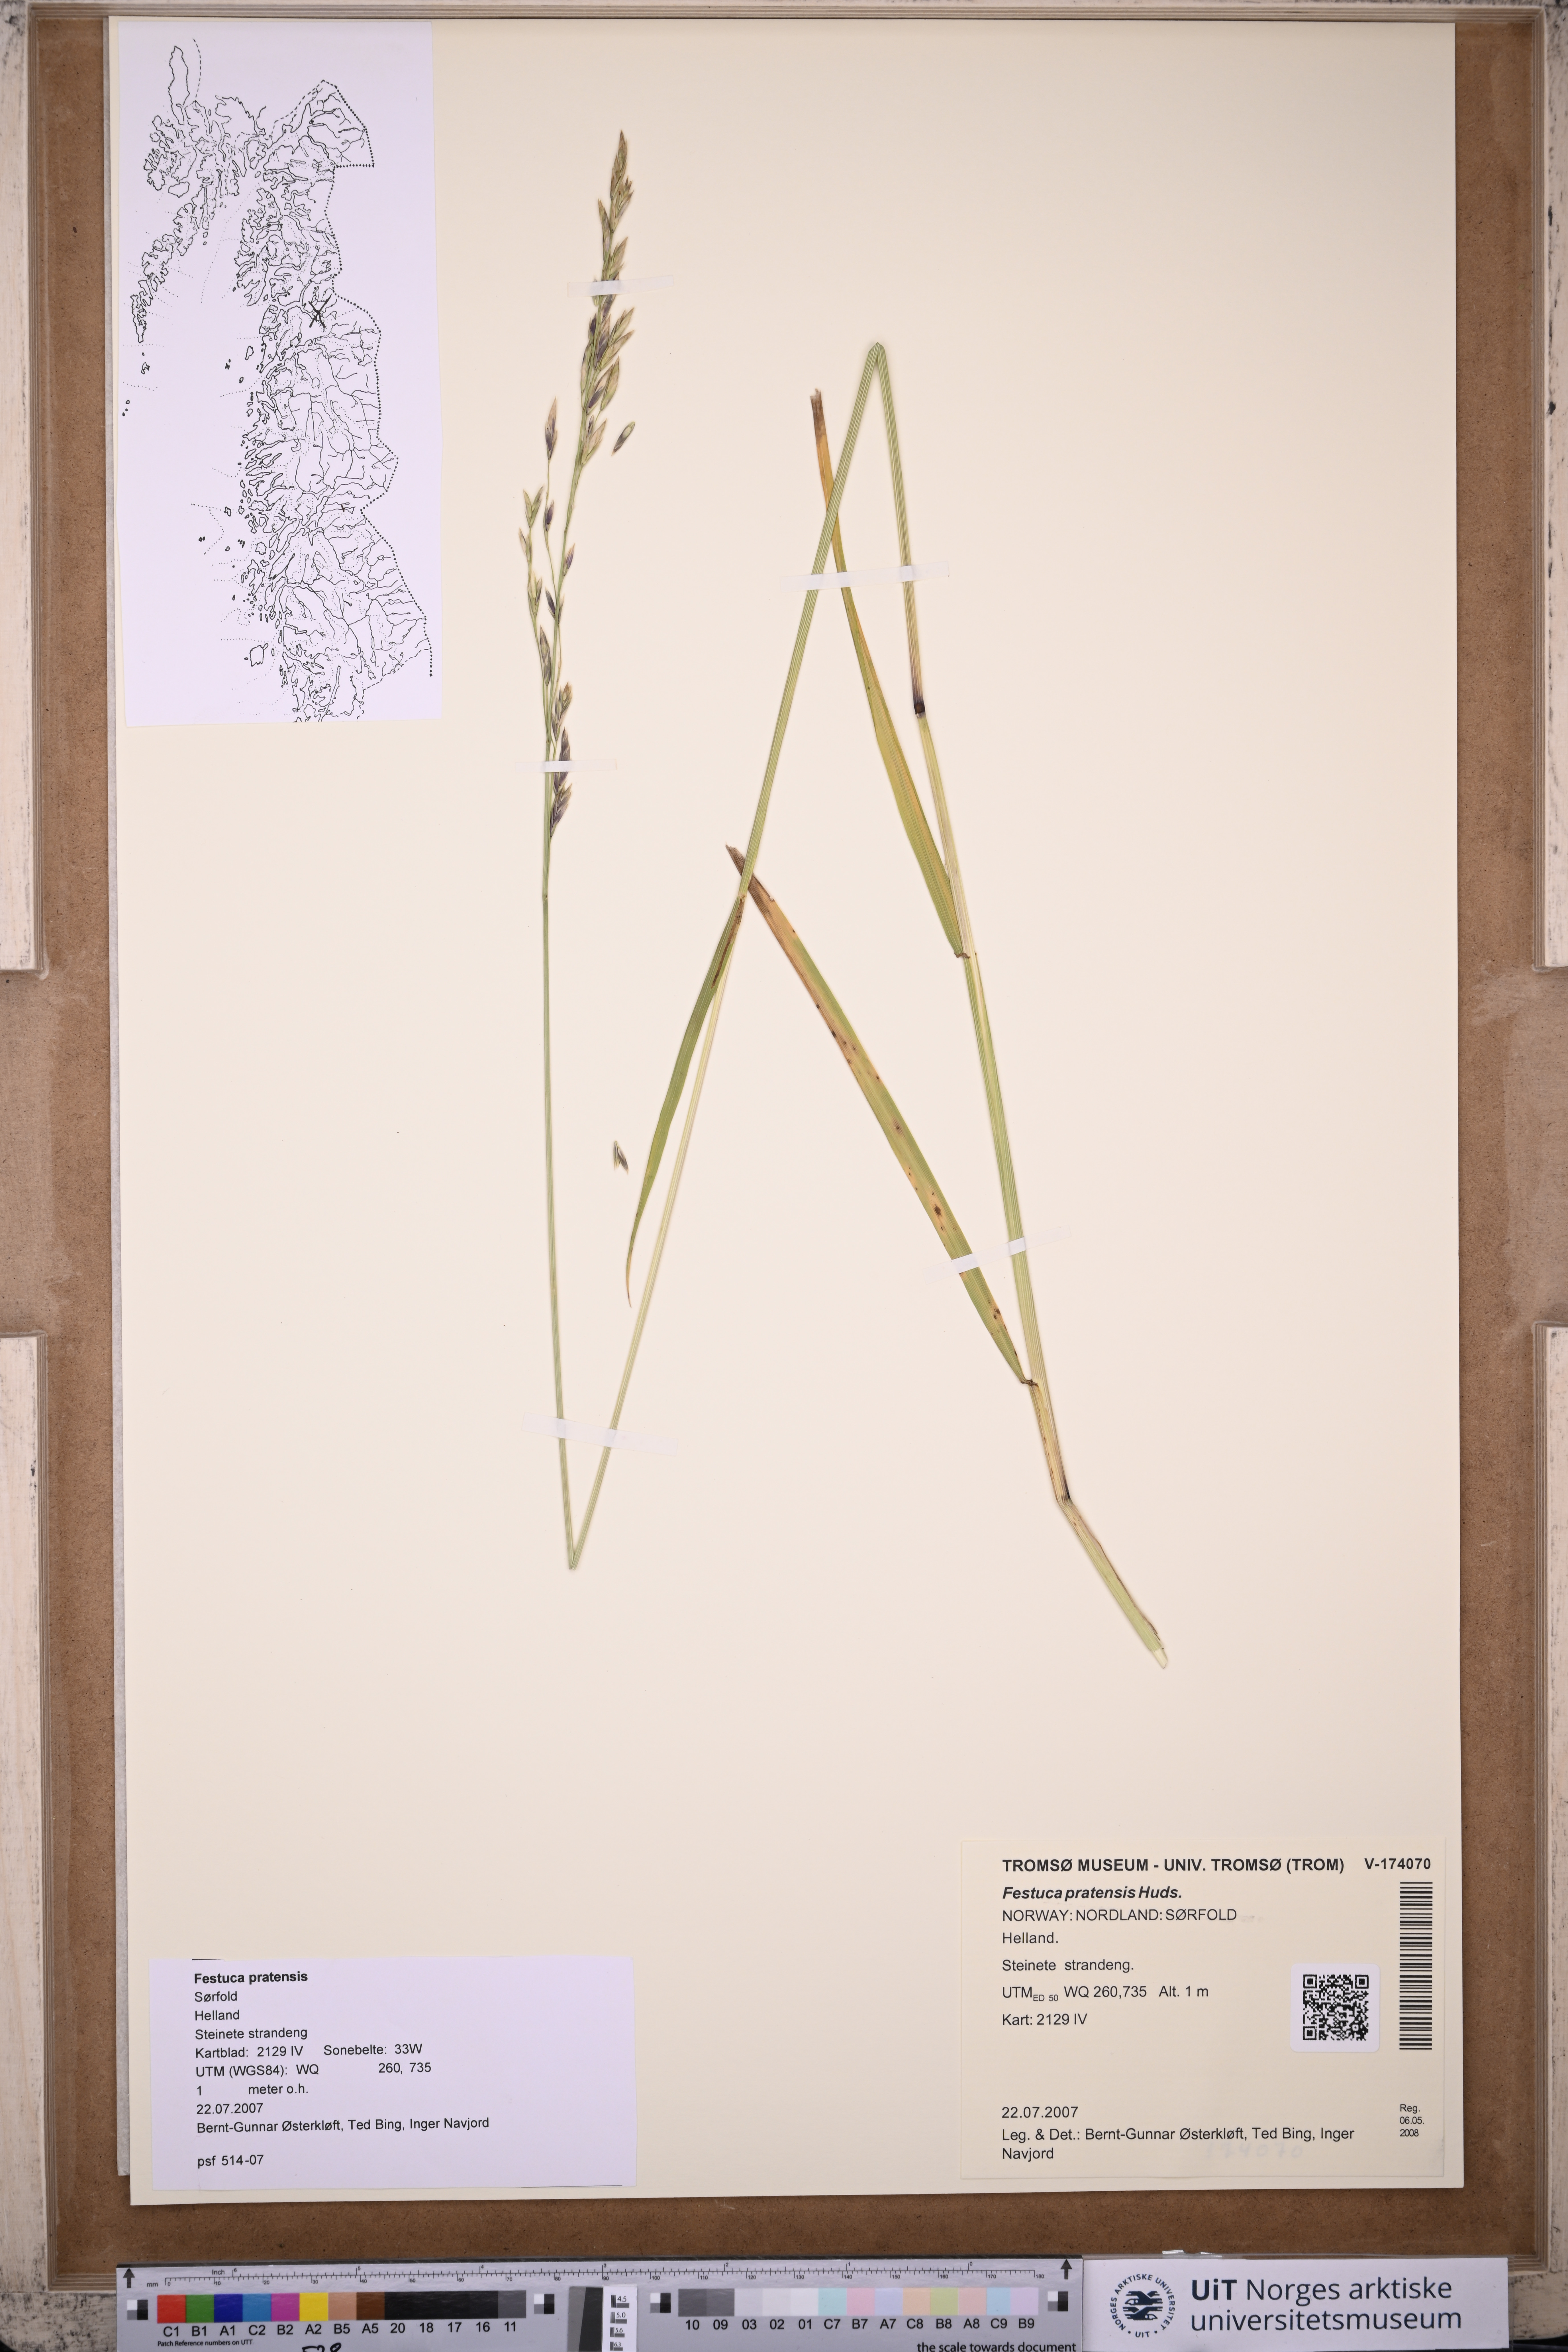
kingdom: Plantae
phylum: Tracheophyta
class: Liliopsida
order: Poales
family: Poaceae
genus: Lolium
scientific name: Lolium pratense
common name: Dover grass
